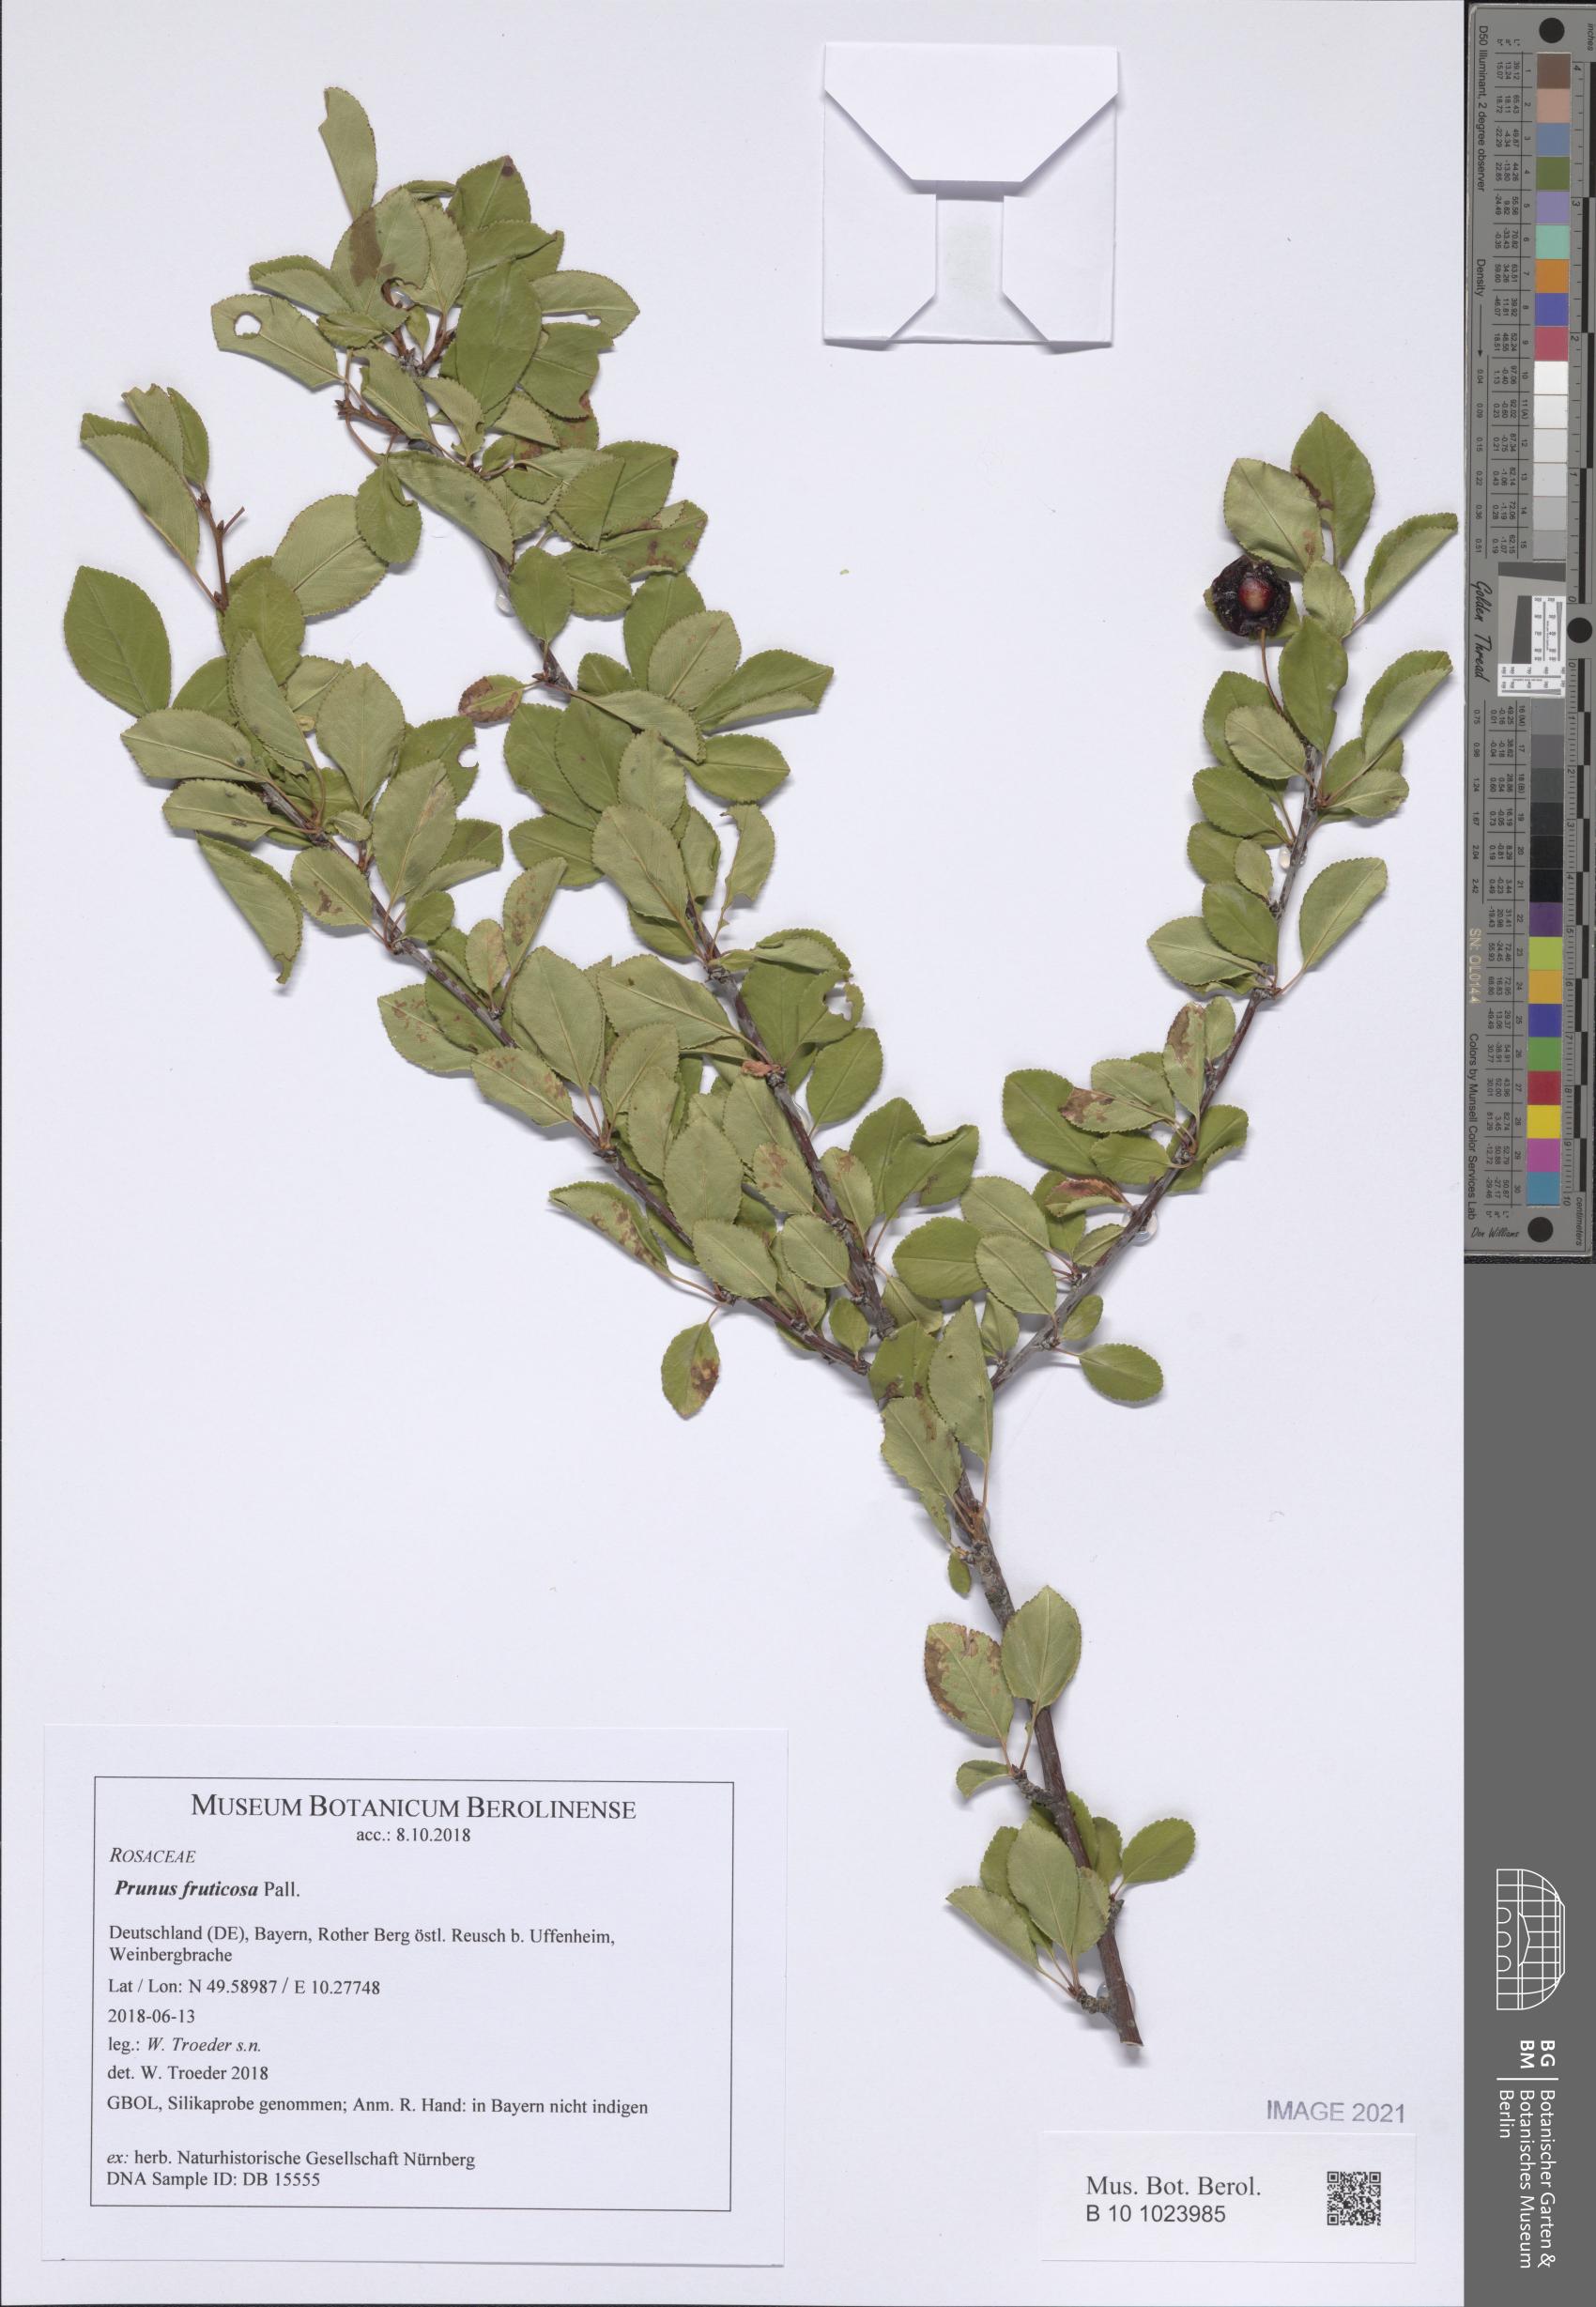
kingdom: Plantae
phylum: Tracheophyta
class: Magnoliopsida
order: Rosales
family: Rosaceae
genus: Prunus
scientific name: Prunus fruticosa
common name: European dwarf cherry
